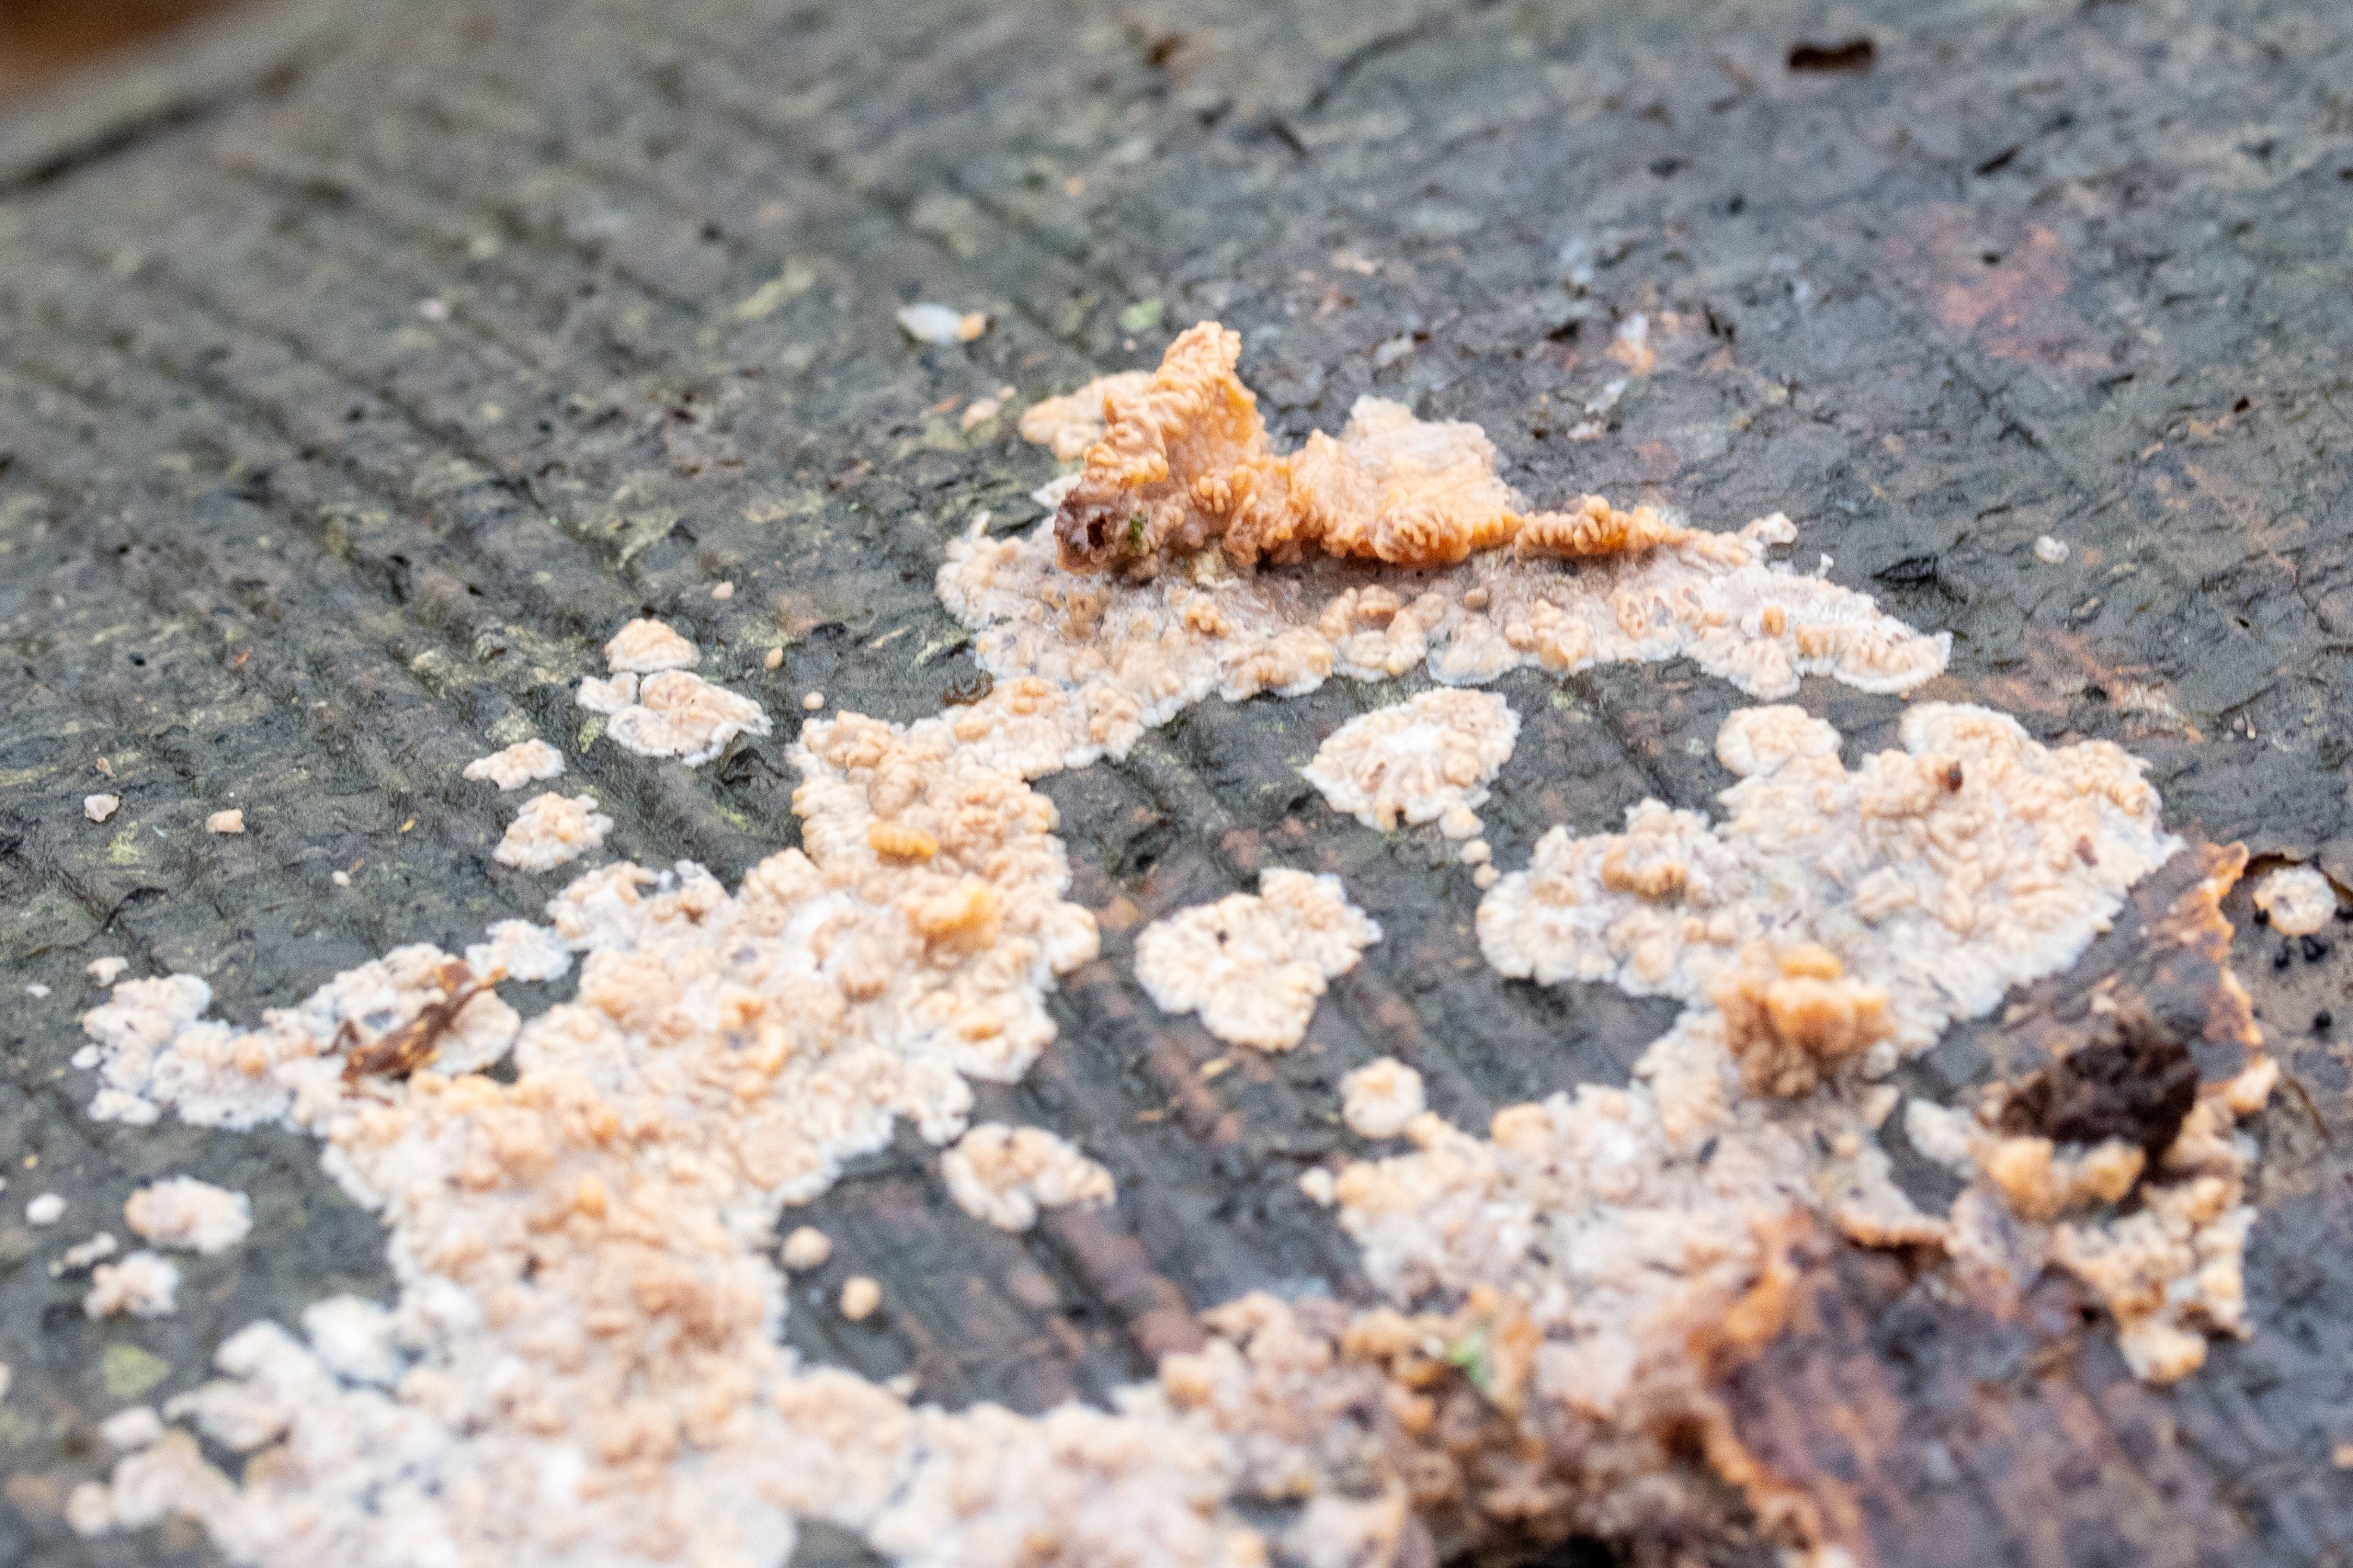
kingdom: Fungi
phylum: Basidiomycota
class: Agaricomycetes
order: Polyporales
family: Meruliaceae
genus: Phlebia
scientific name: Phlebia radiata
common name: Stråle-åresvamp
